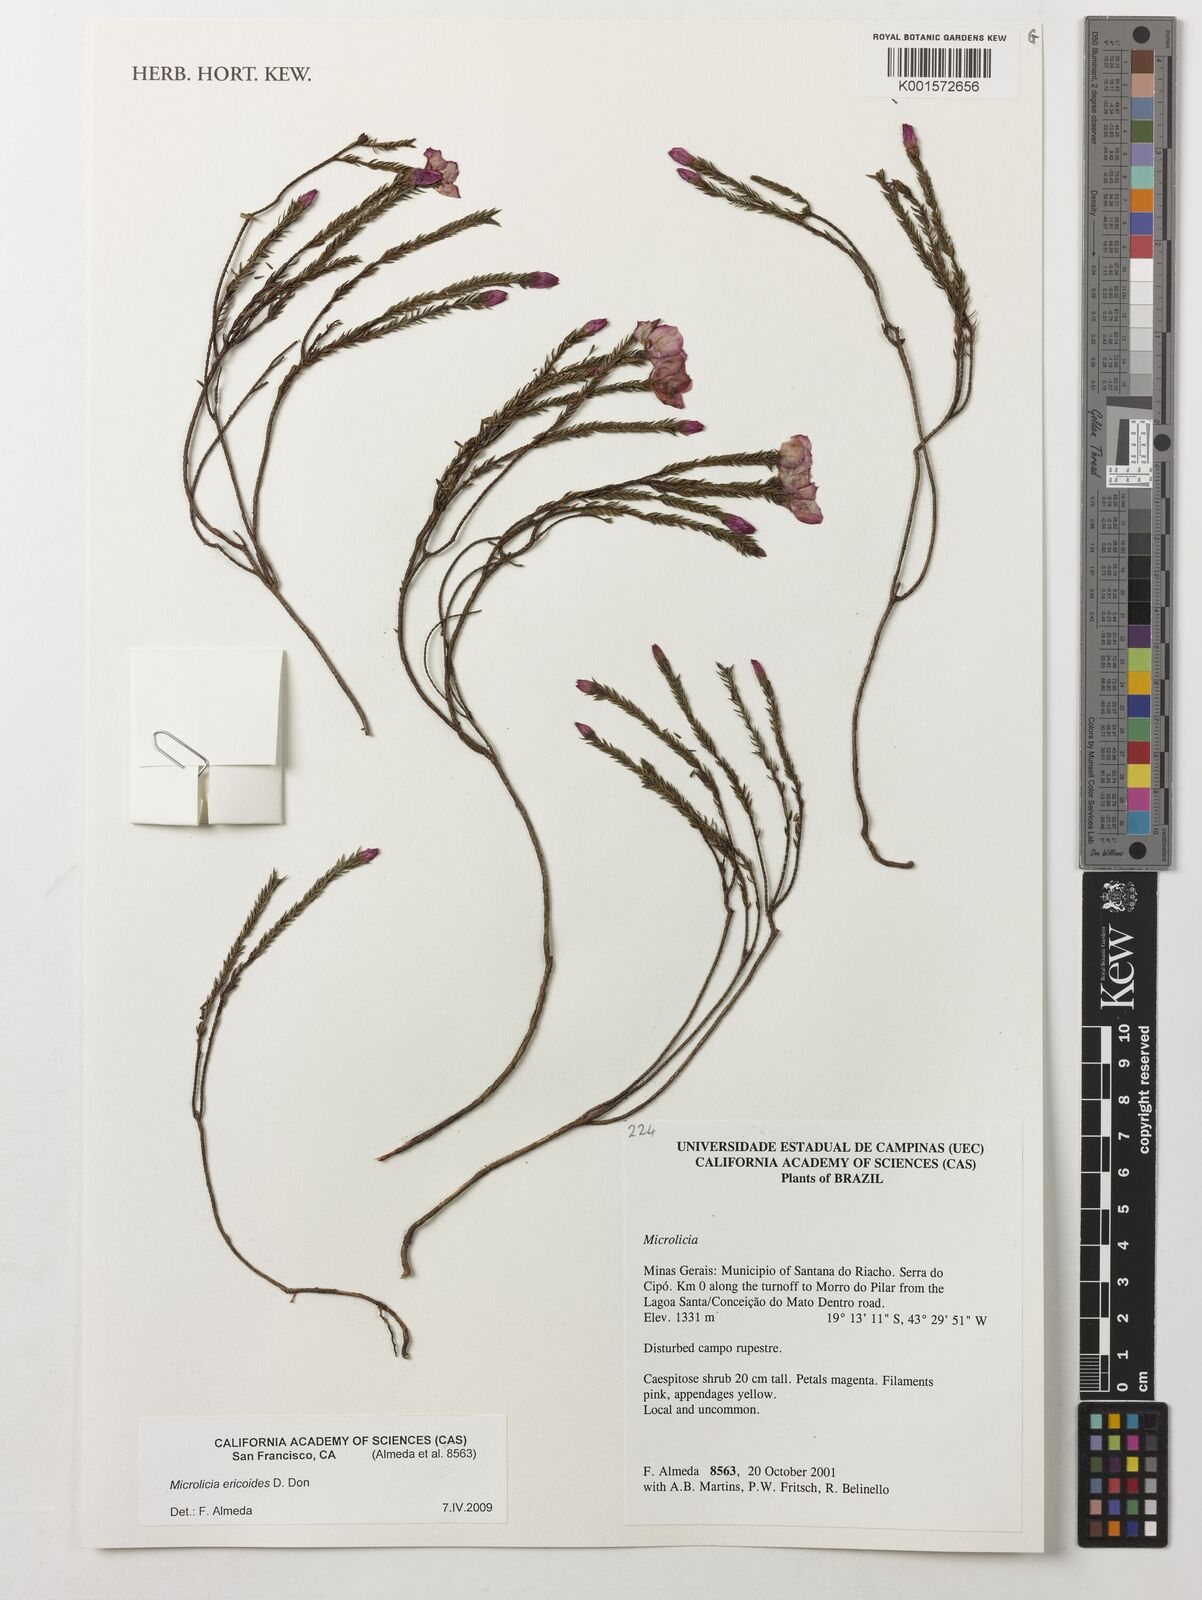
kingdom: Plantae
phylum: Tracheophyta
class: Magnoliopsida
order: Myrtales
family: Melastomataceae
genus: Microlicia
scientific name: Microlicia ericoides
